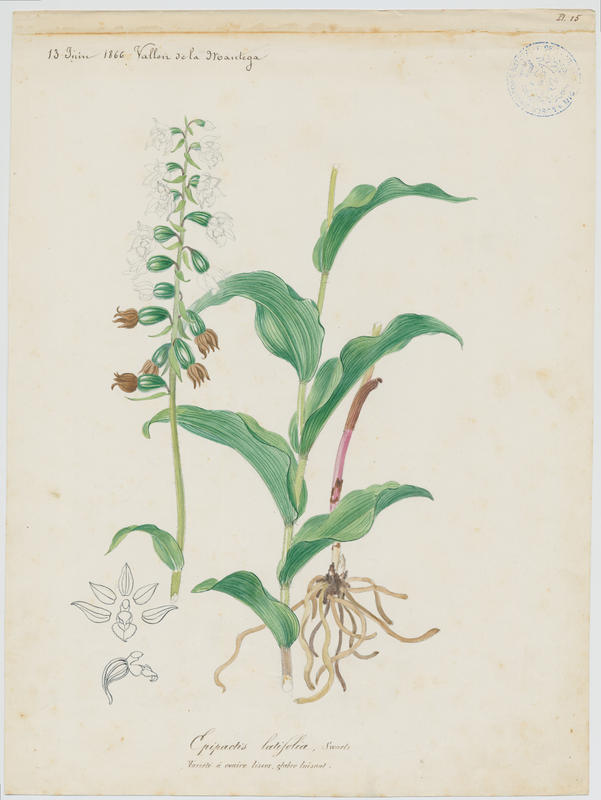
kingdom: Plantae
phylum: Tracheophyta
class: Liliopsida
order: Asparagales
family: Orchidaceae
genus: Epipactis
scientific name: Epipactis helleborine
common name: Broad-leaved helleborine
